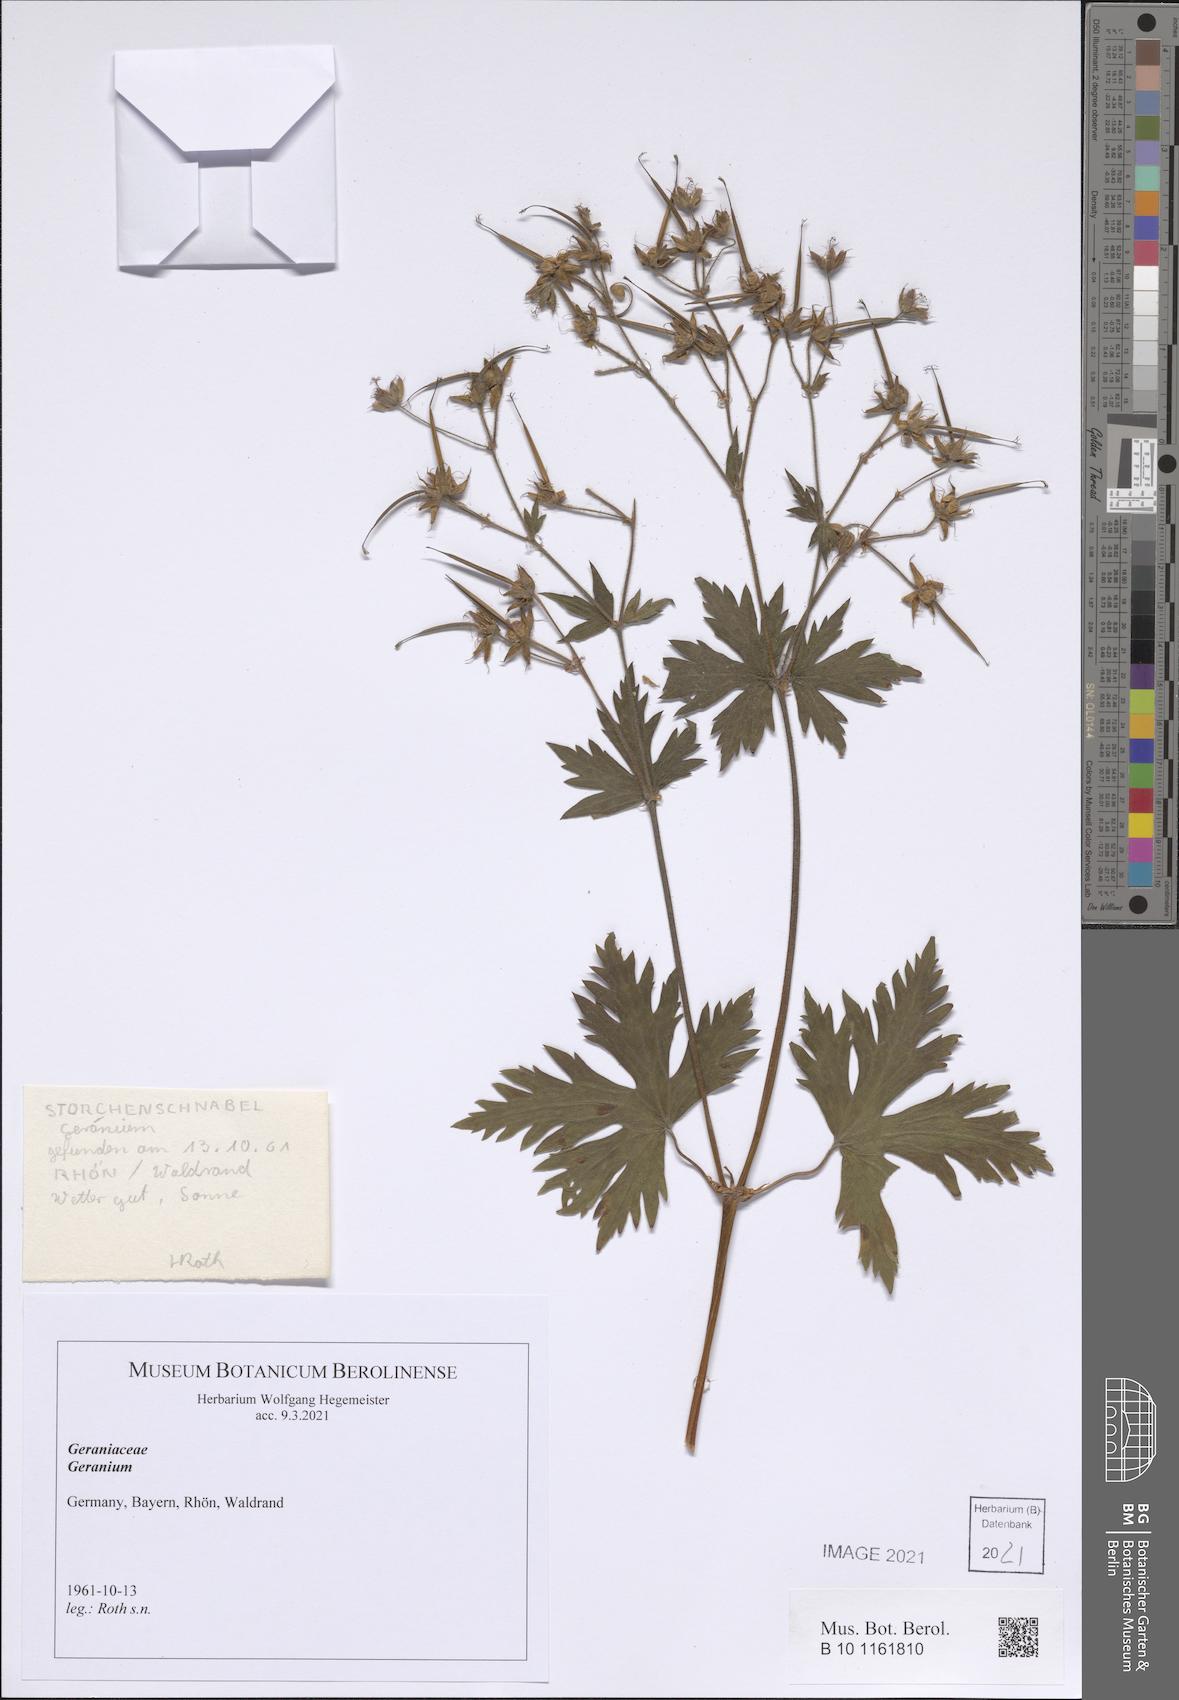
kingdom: Plantae
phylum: Tracheophyta
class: Magnoliopsida
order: Geraniales
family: Geraniaceae
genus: Geranium
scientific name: Geranium
